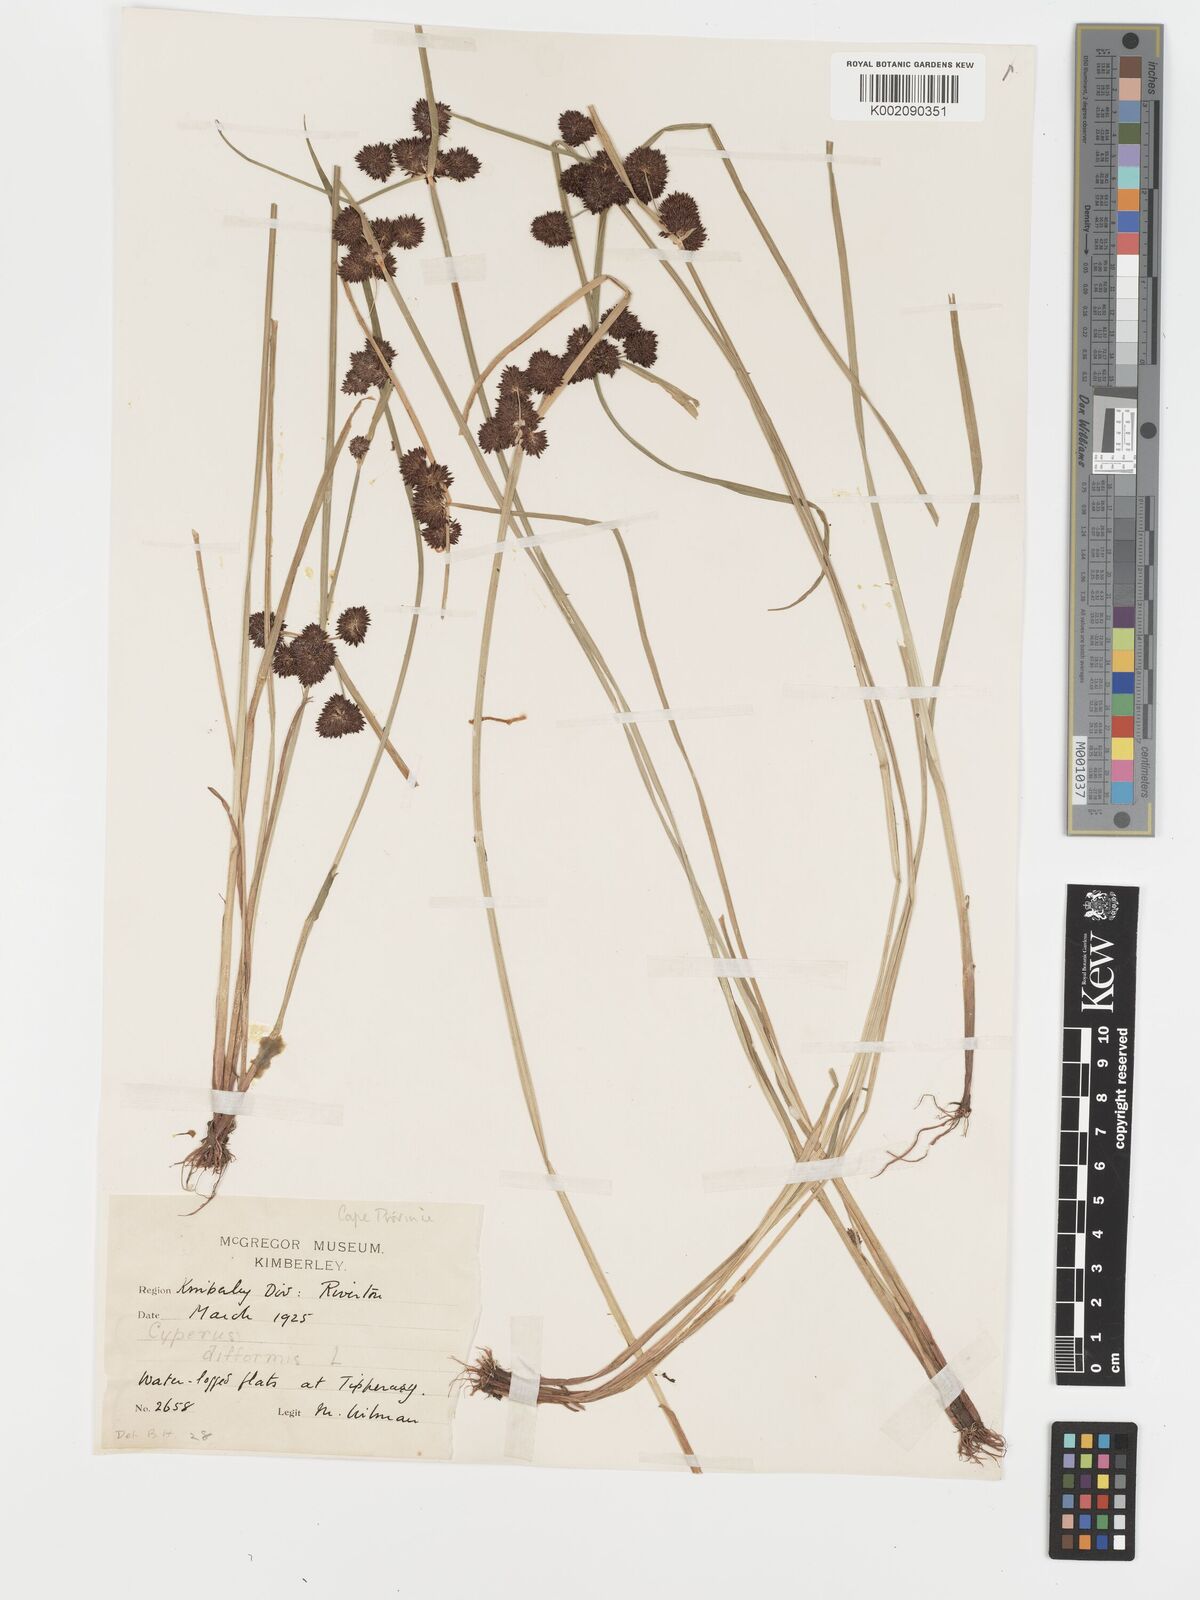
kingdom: Plantae
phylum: Tracheophyta
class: Liliopsida
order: Poales
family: Cyperaceae
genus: Cyperus
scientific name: Cyperus difformis
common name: Variable flatsedge
